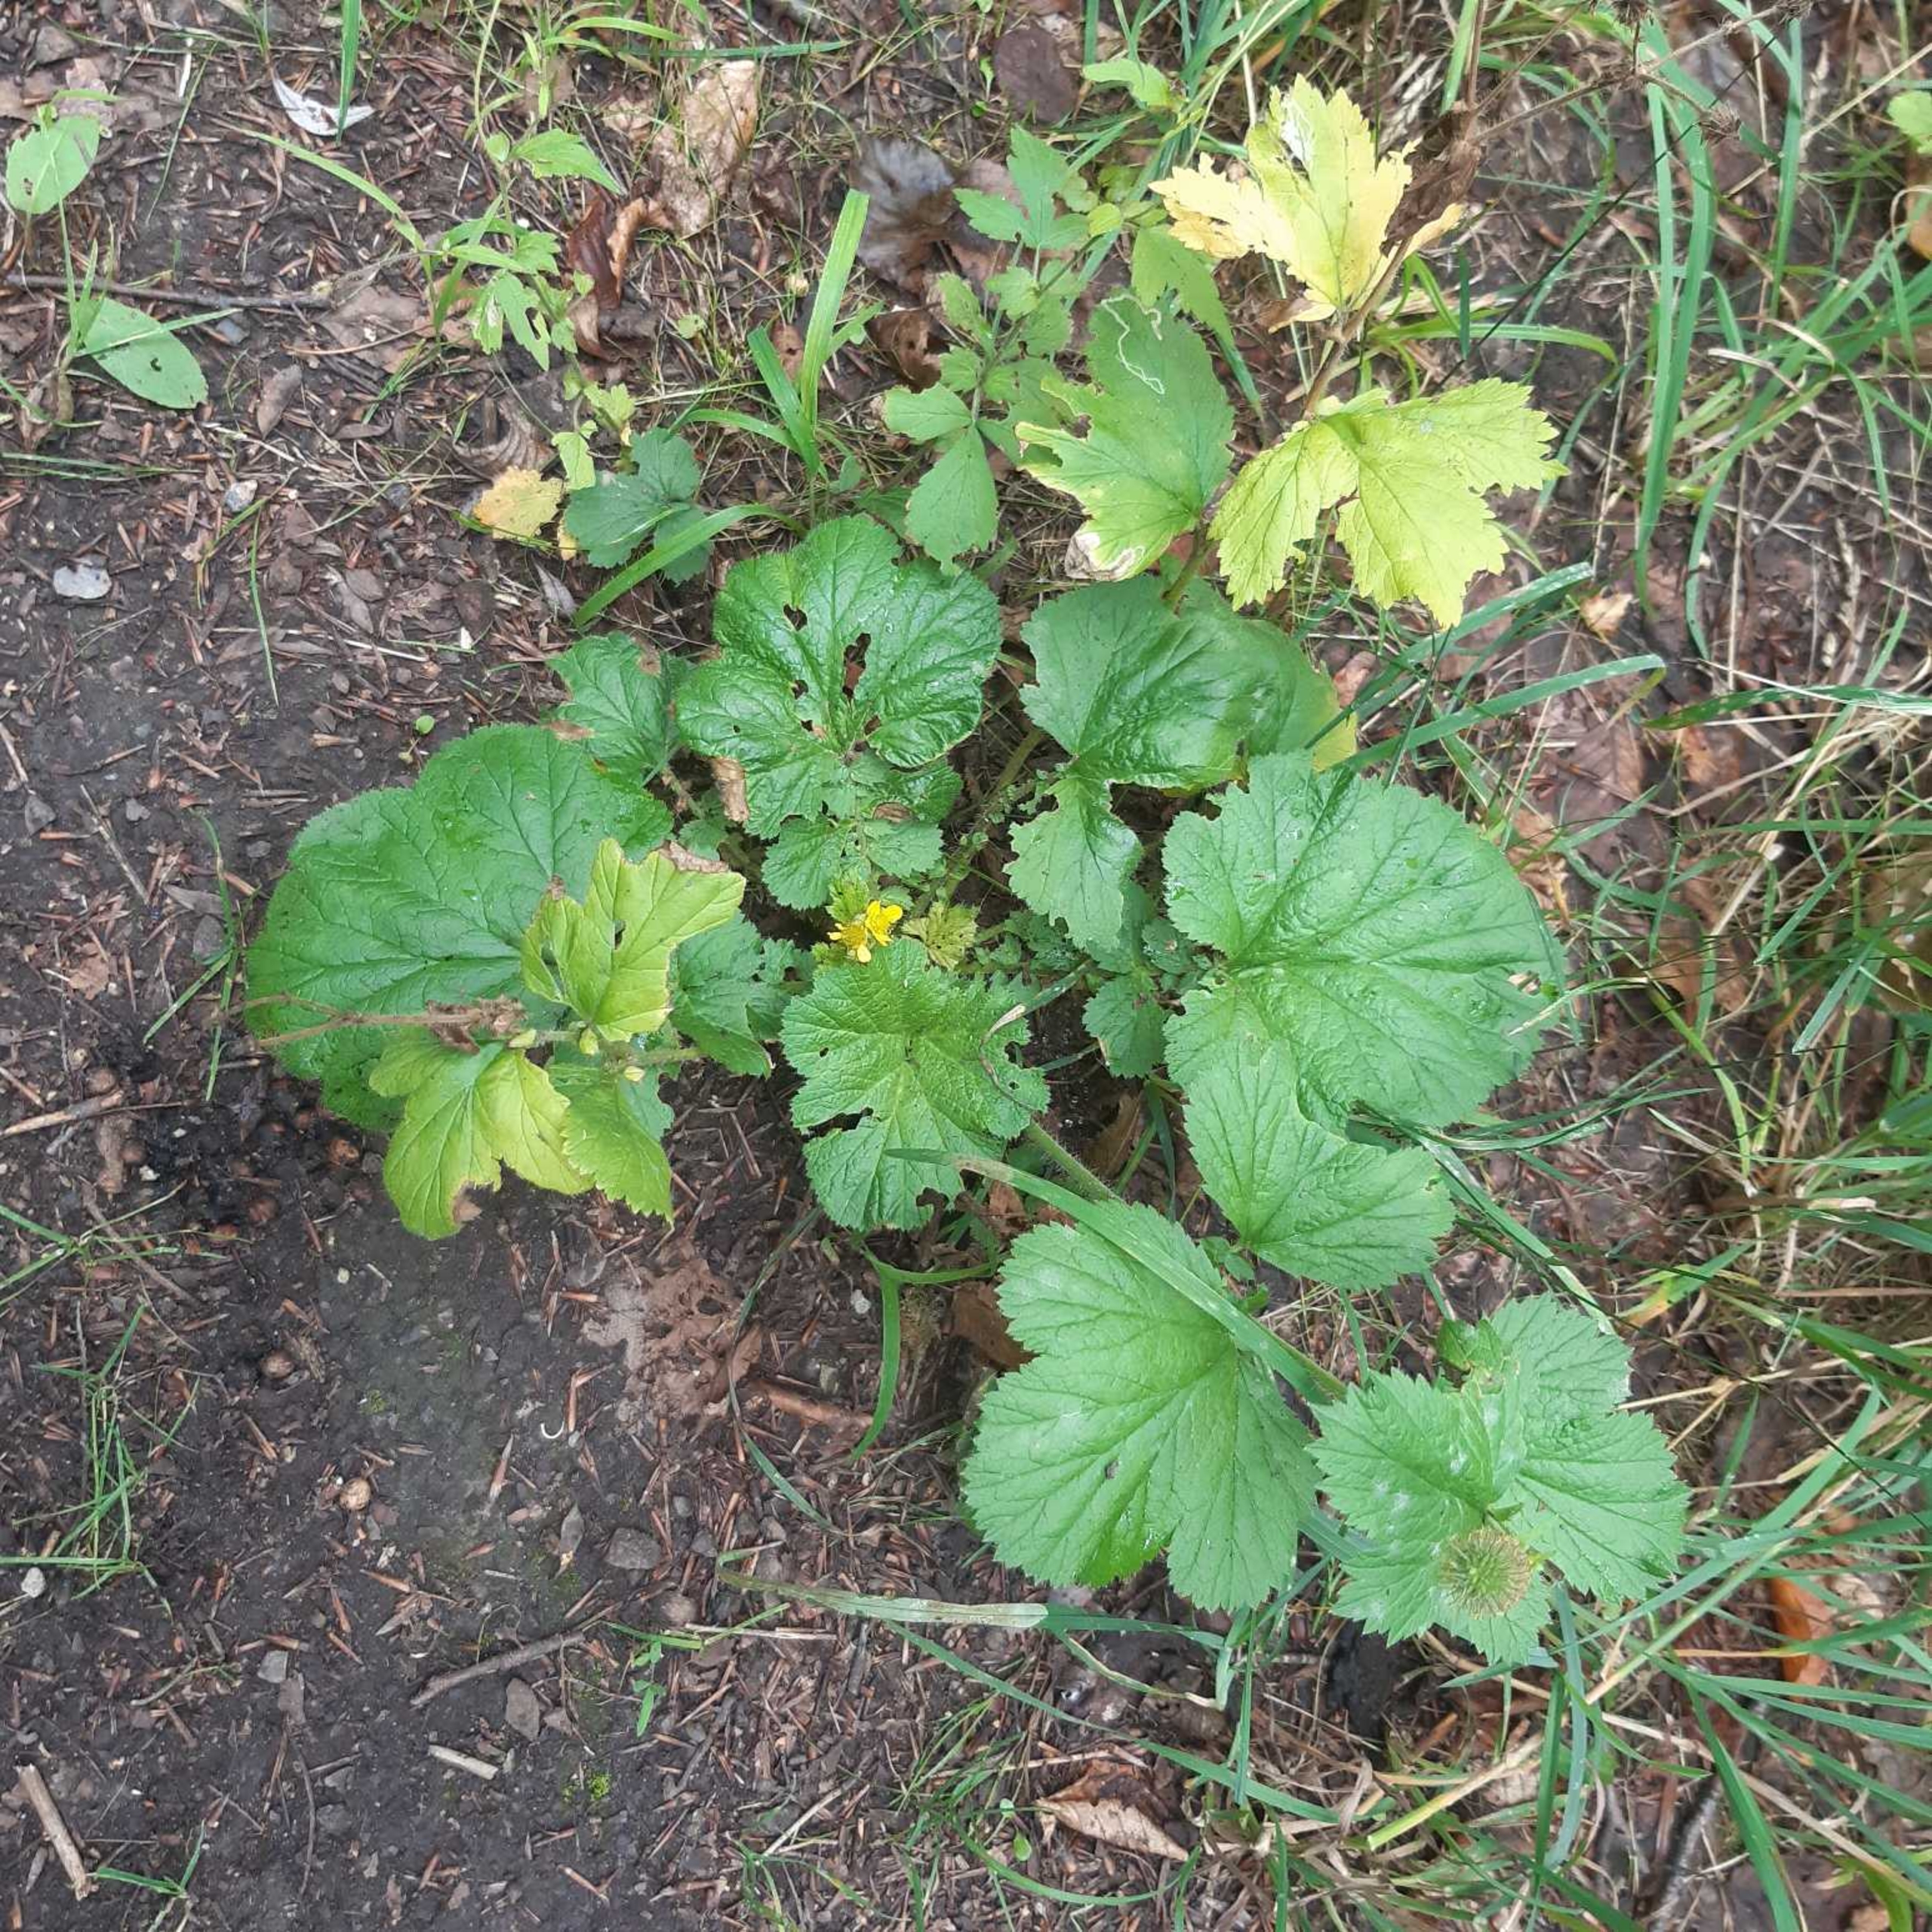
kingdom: Plantae
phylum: Tracheophyta
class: Magnoliopsida
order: Rosales
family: Rosaceae
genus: Geum
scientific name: Geum macrophyllum
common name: Amerikansk nellikerod
